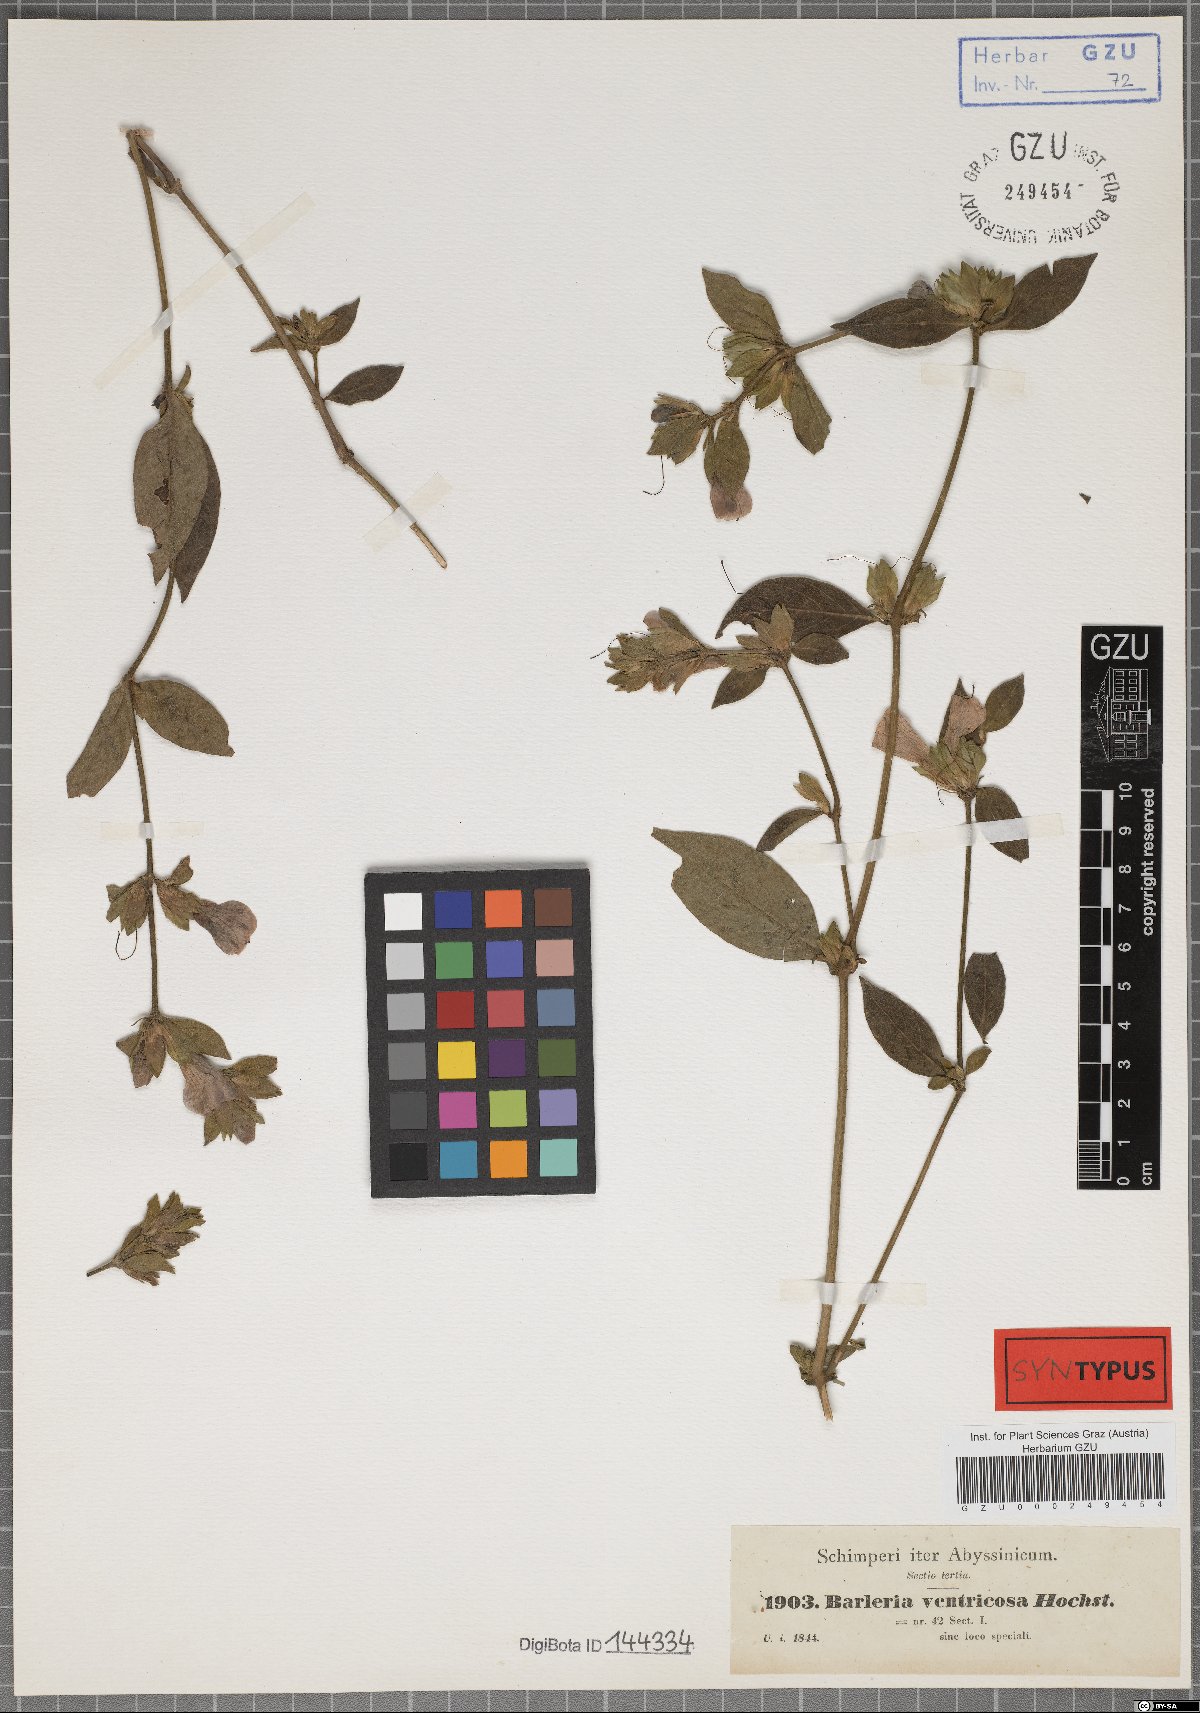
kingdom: Plantae
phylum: Tracheophyta
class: Magnoliopsida
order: Lamiales
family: Acanthaceae
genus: Barleria
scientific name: Barleria ventricosa
